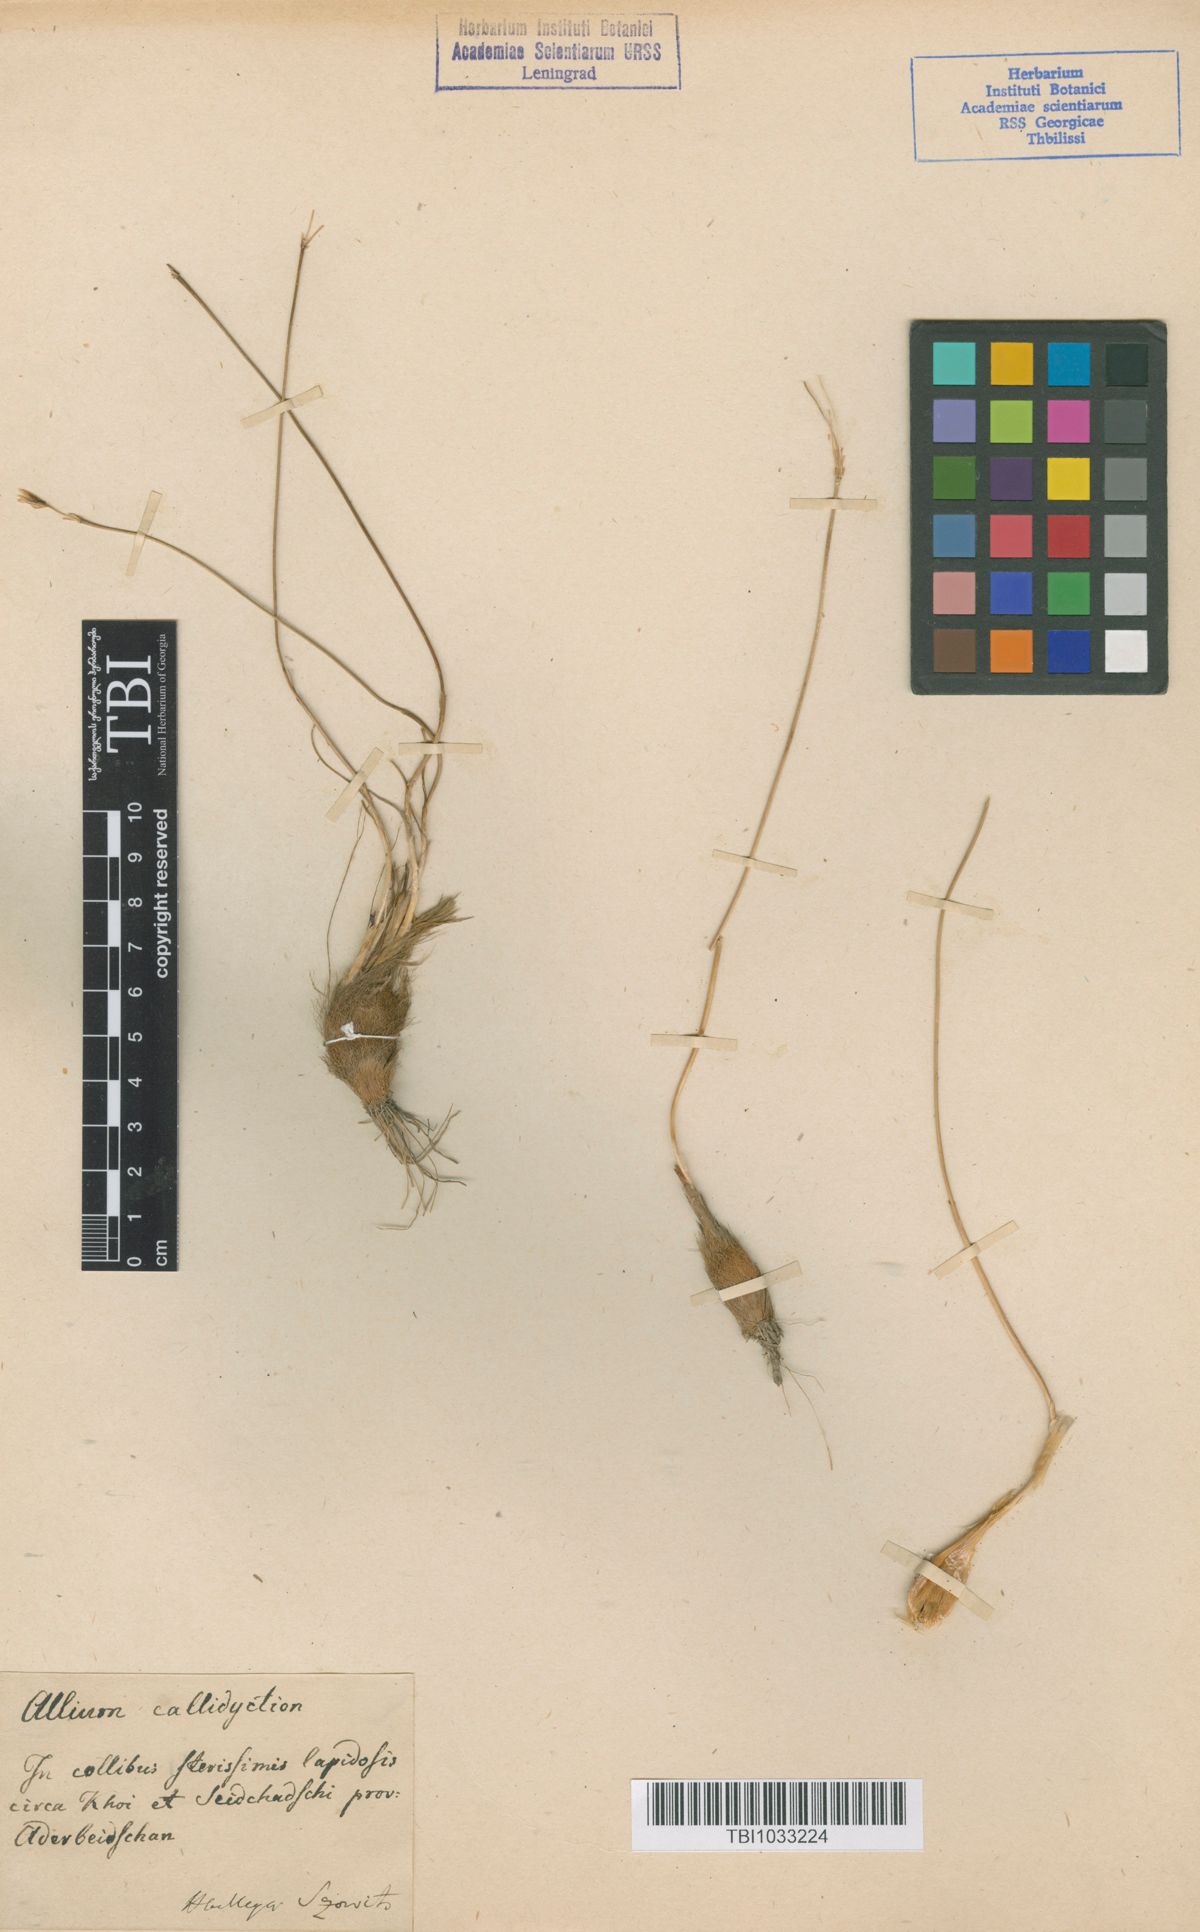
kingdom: Plantae
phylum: Tracheophyta
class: Liliopsida
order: Asparagales
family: Amaryllidaceae
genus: Allium
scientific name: Allium callidyction
